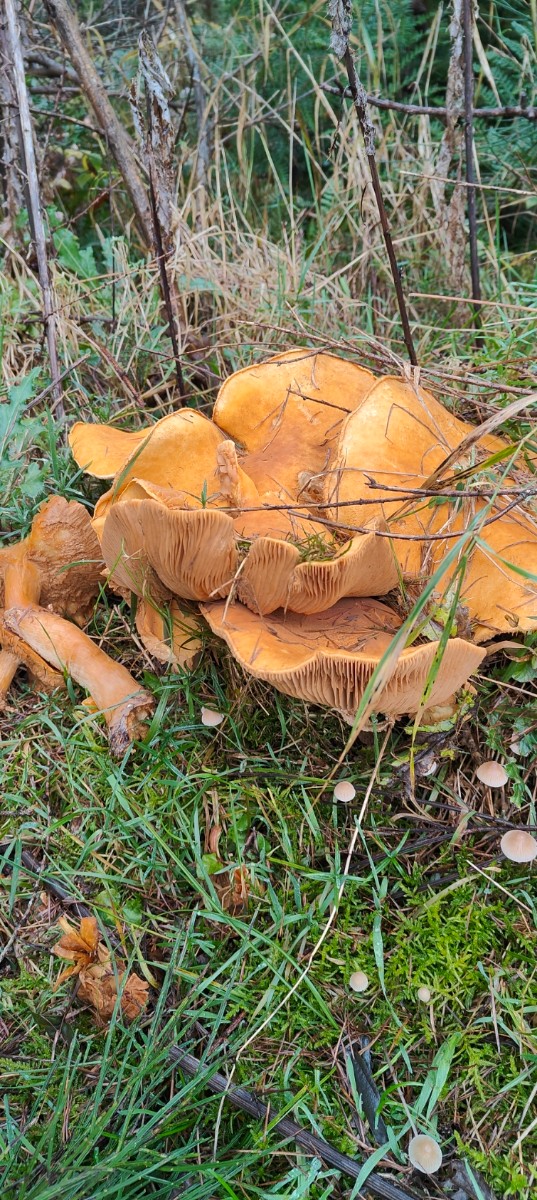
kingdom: Fungi
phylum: Basidiomycota
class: Agaricomycetes
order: Agaricales
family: Tricholomataceae
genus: Phaeolepiota
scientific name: Phaeolepiota aurea
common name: gyldenhat
